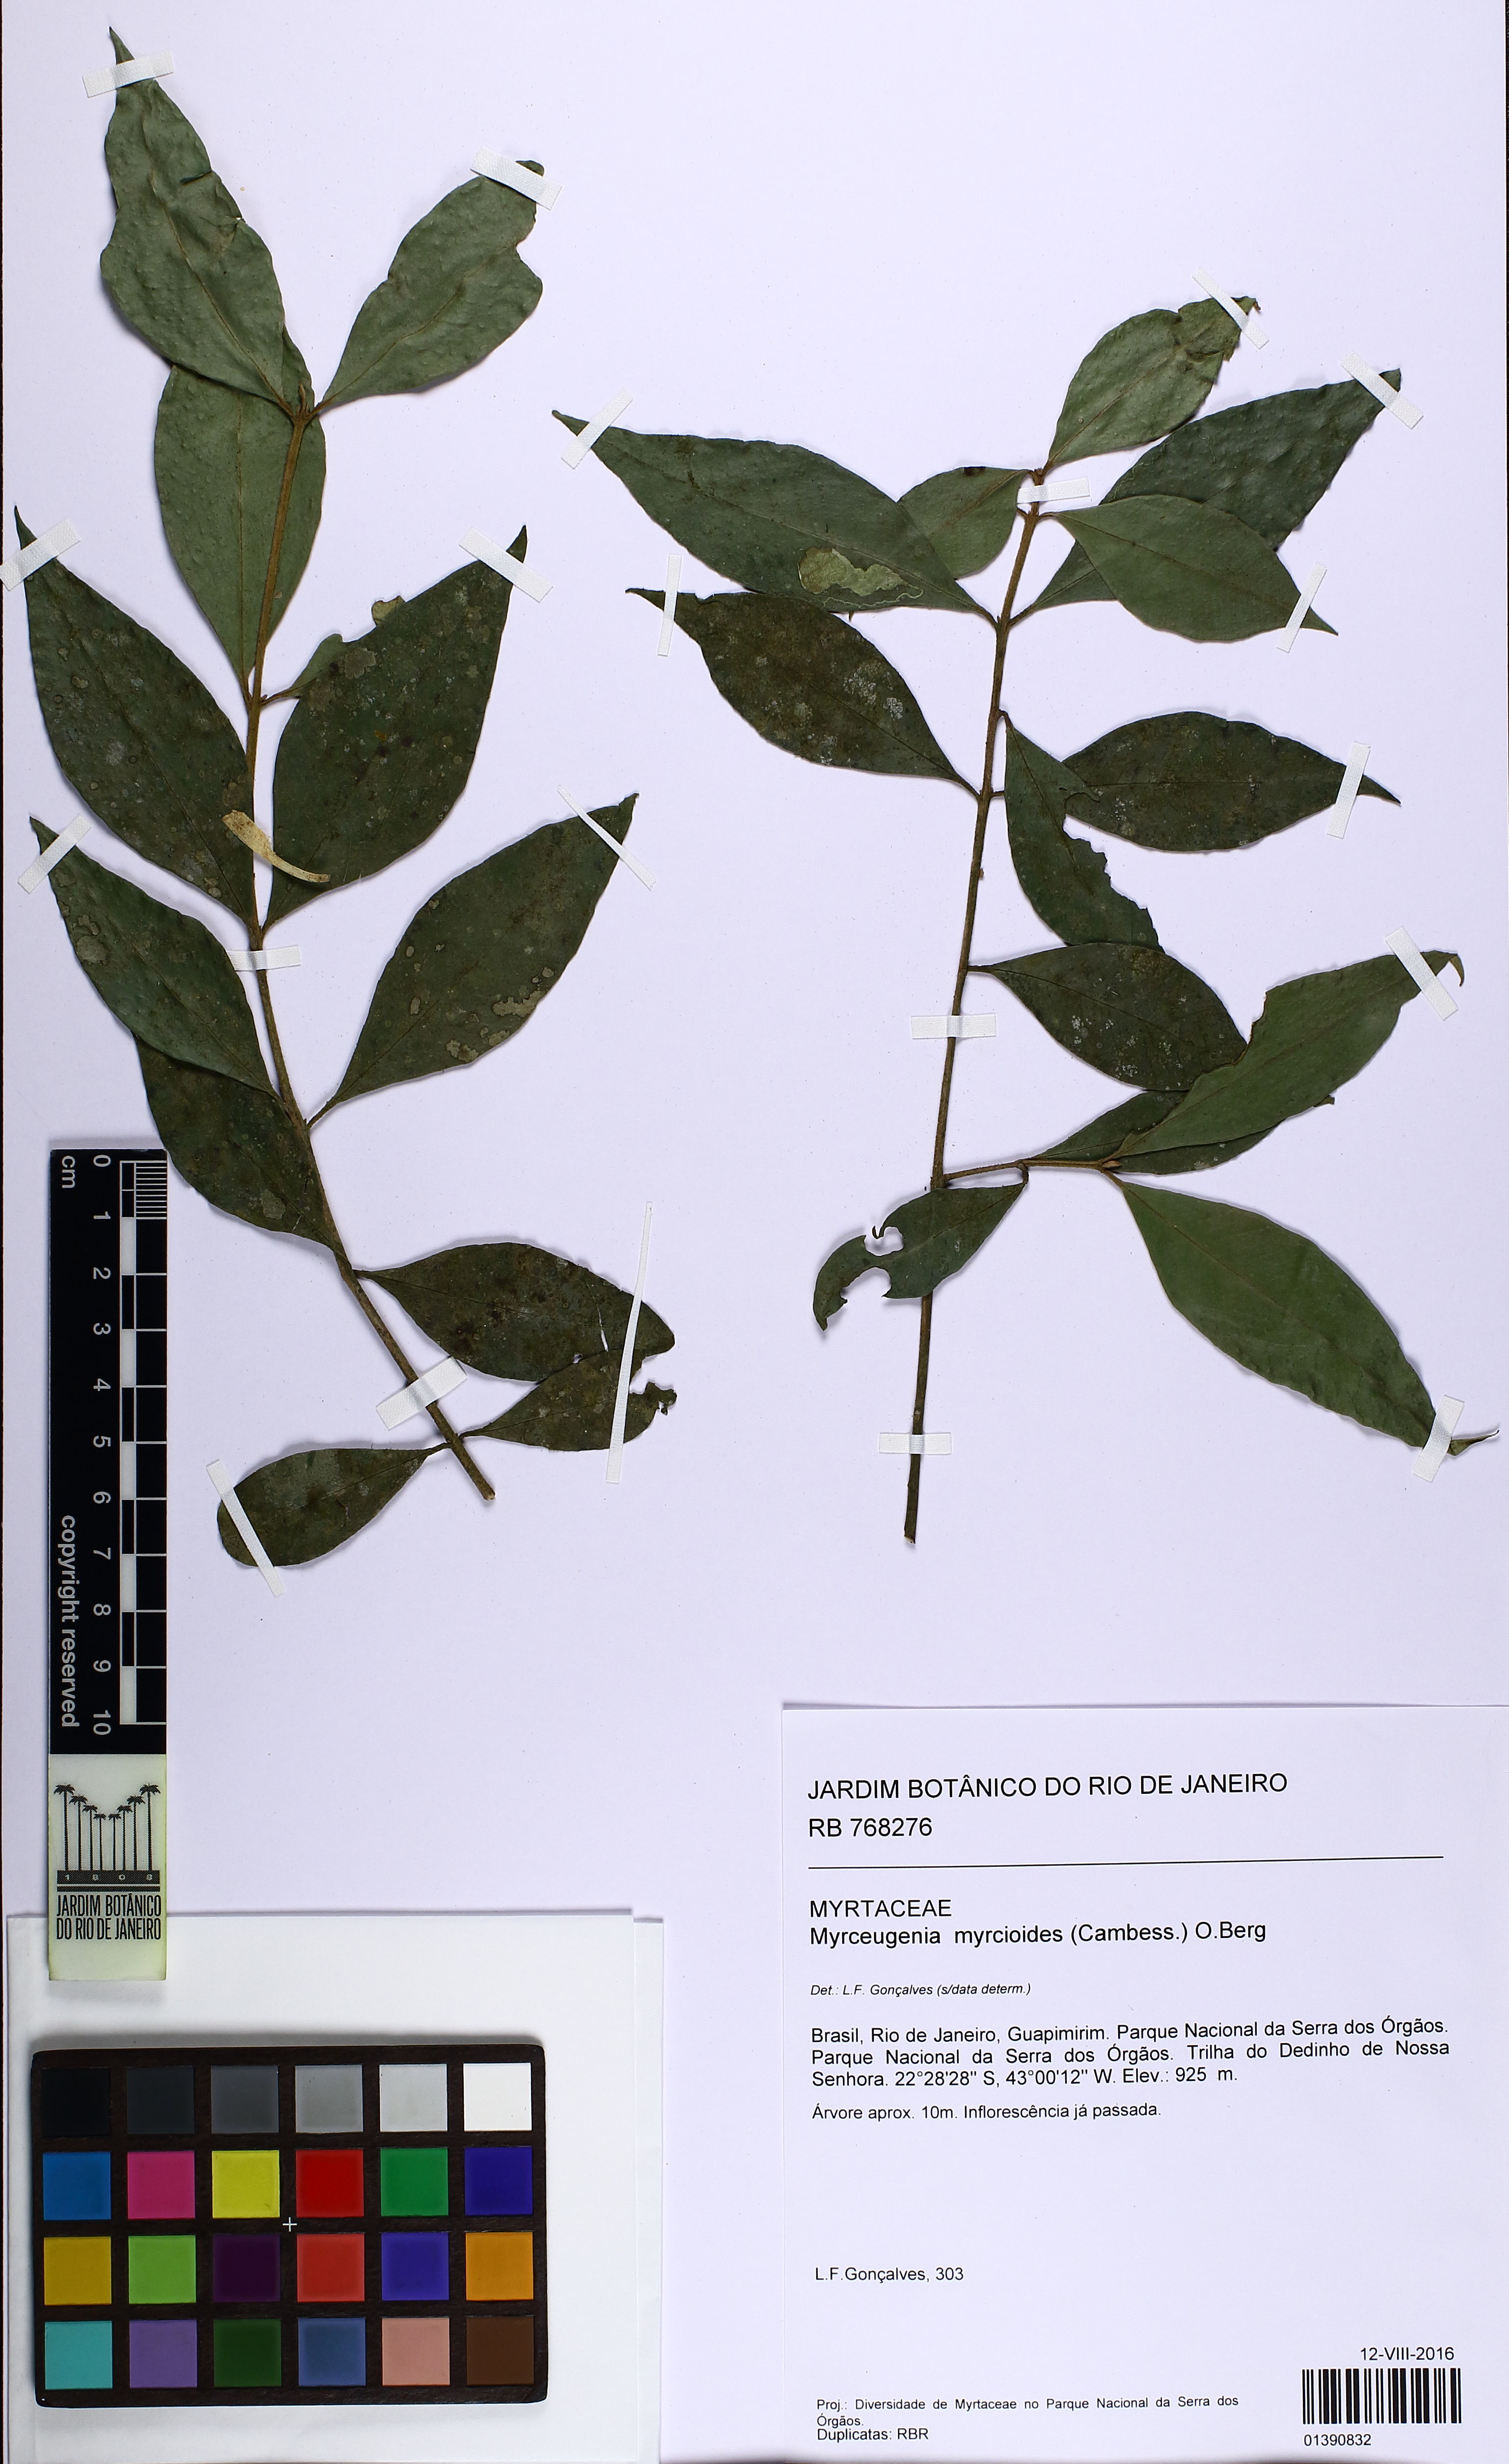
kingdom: Plantae
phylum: Tracheophyta
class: Magnoliopsida
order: Myrtales
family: Myrtaceae
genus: Myrceugenia
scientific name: Myrceugenia myrcioides
